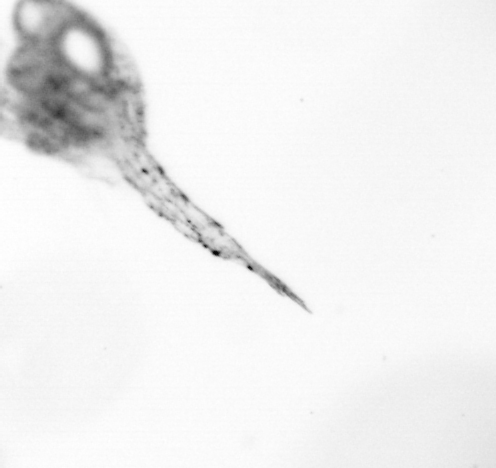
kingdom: Animalia
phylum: Arthropoda
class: Copepoda
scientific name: Copepoda
